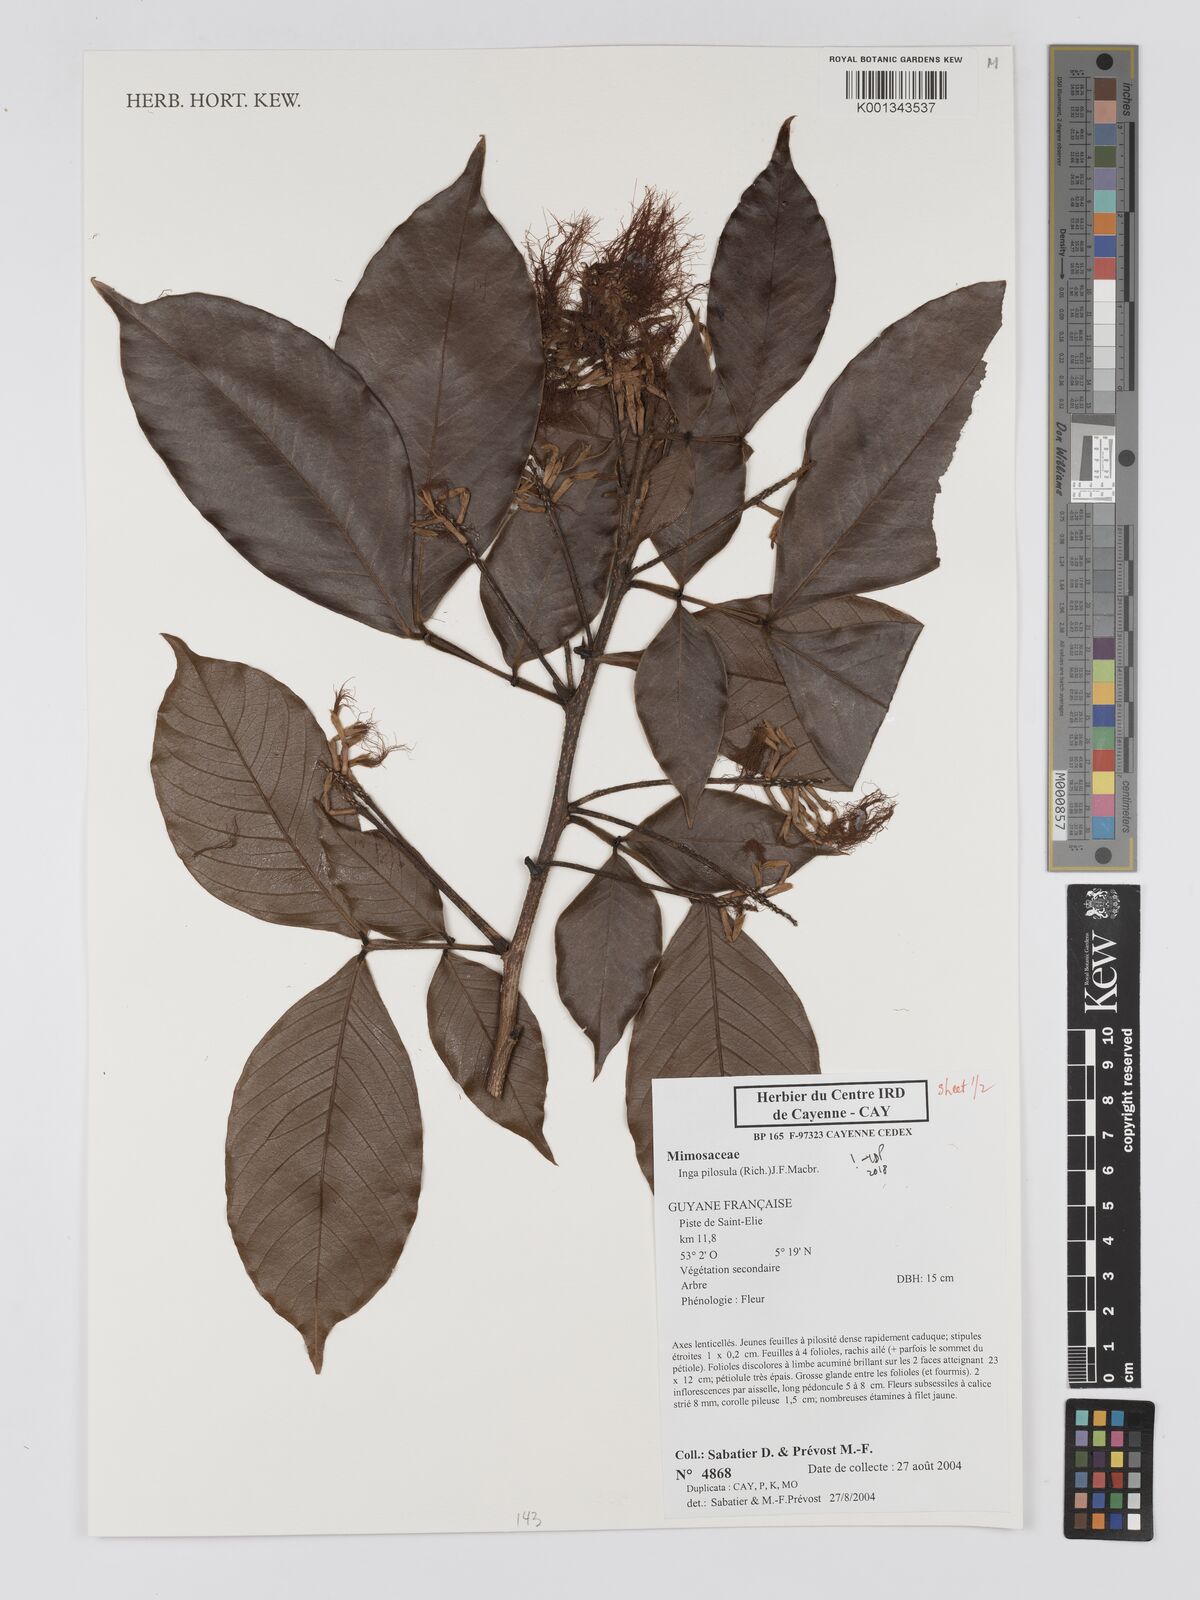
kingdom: Plantae
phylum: Tracheophyta
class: Magnoliopsida
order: Fabales
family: Fabaceae
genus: Inga
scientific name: Inga pilosula
